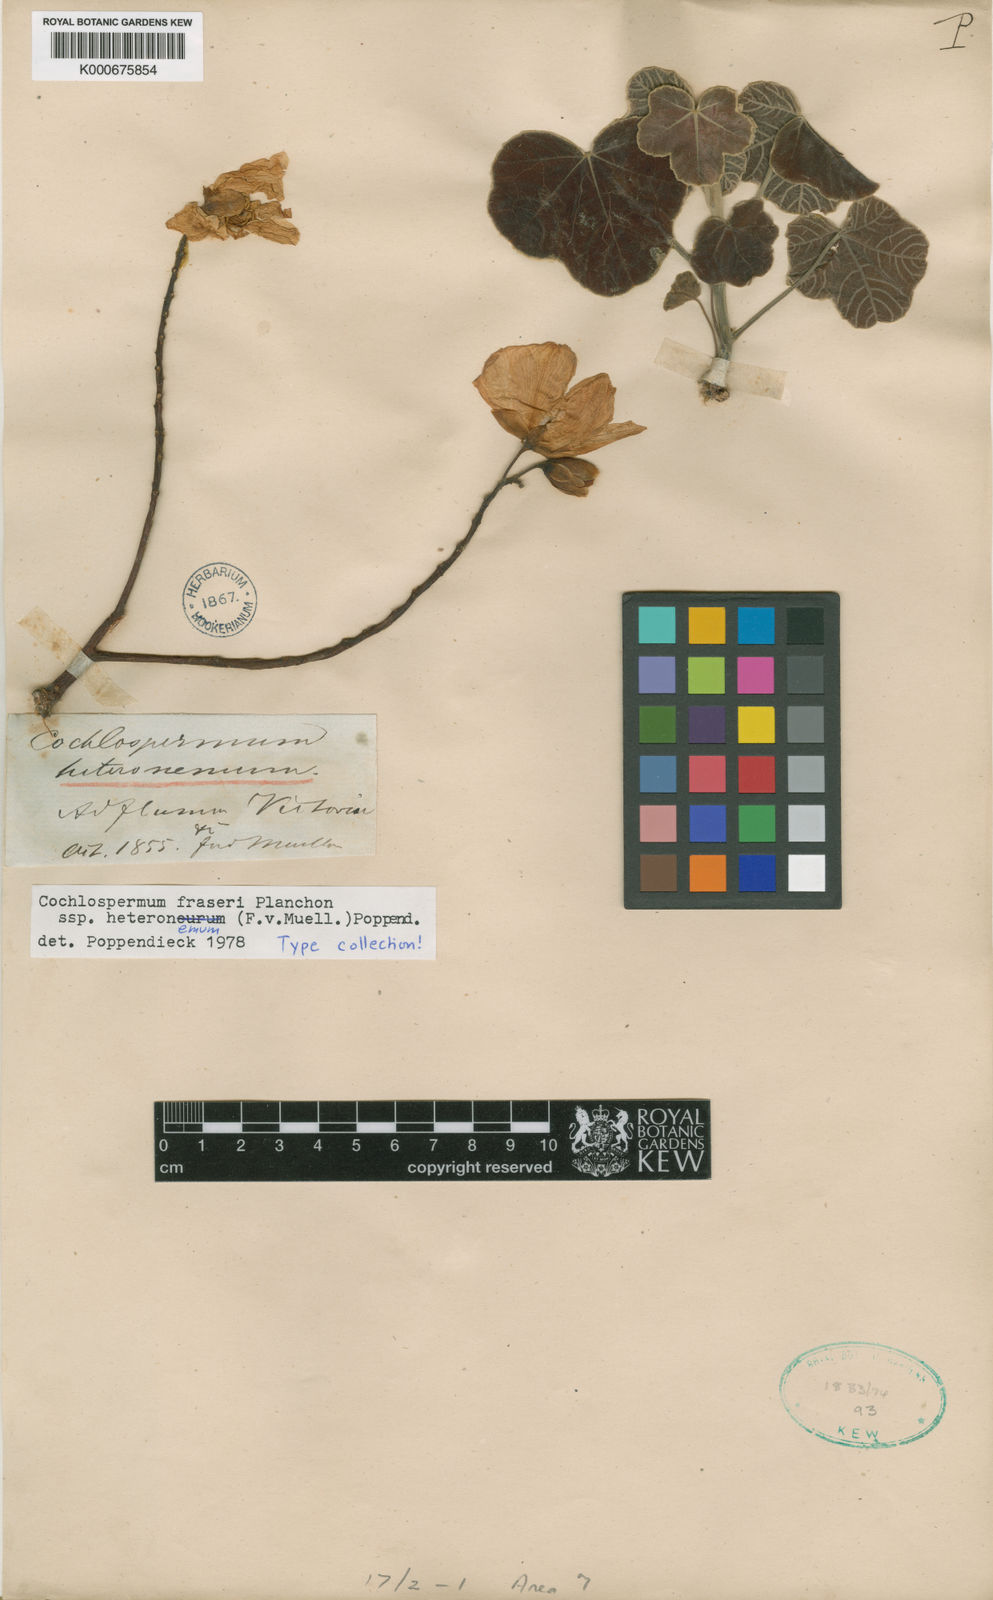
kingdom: Plantae
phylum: Tracheophyta
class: Magnoliopsida
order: Malvales
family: Cochlospermaceae
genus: Cochlospermum
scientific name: Cochlospermum fraseri
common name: Kapokbush
